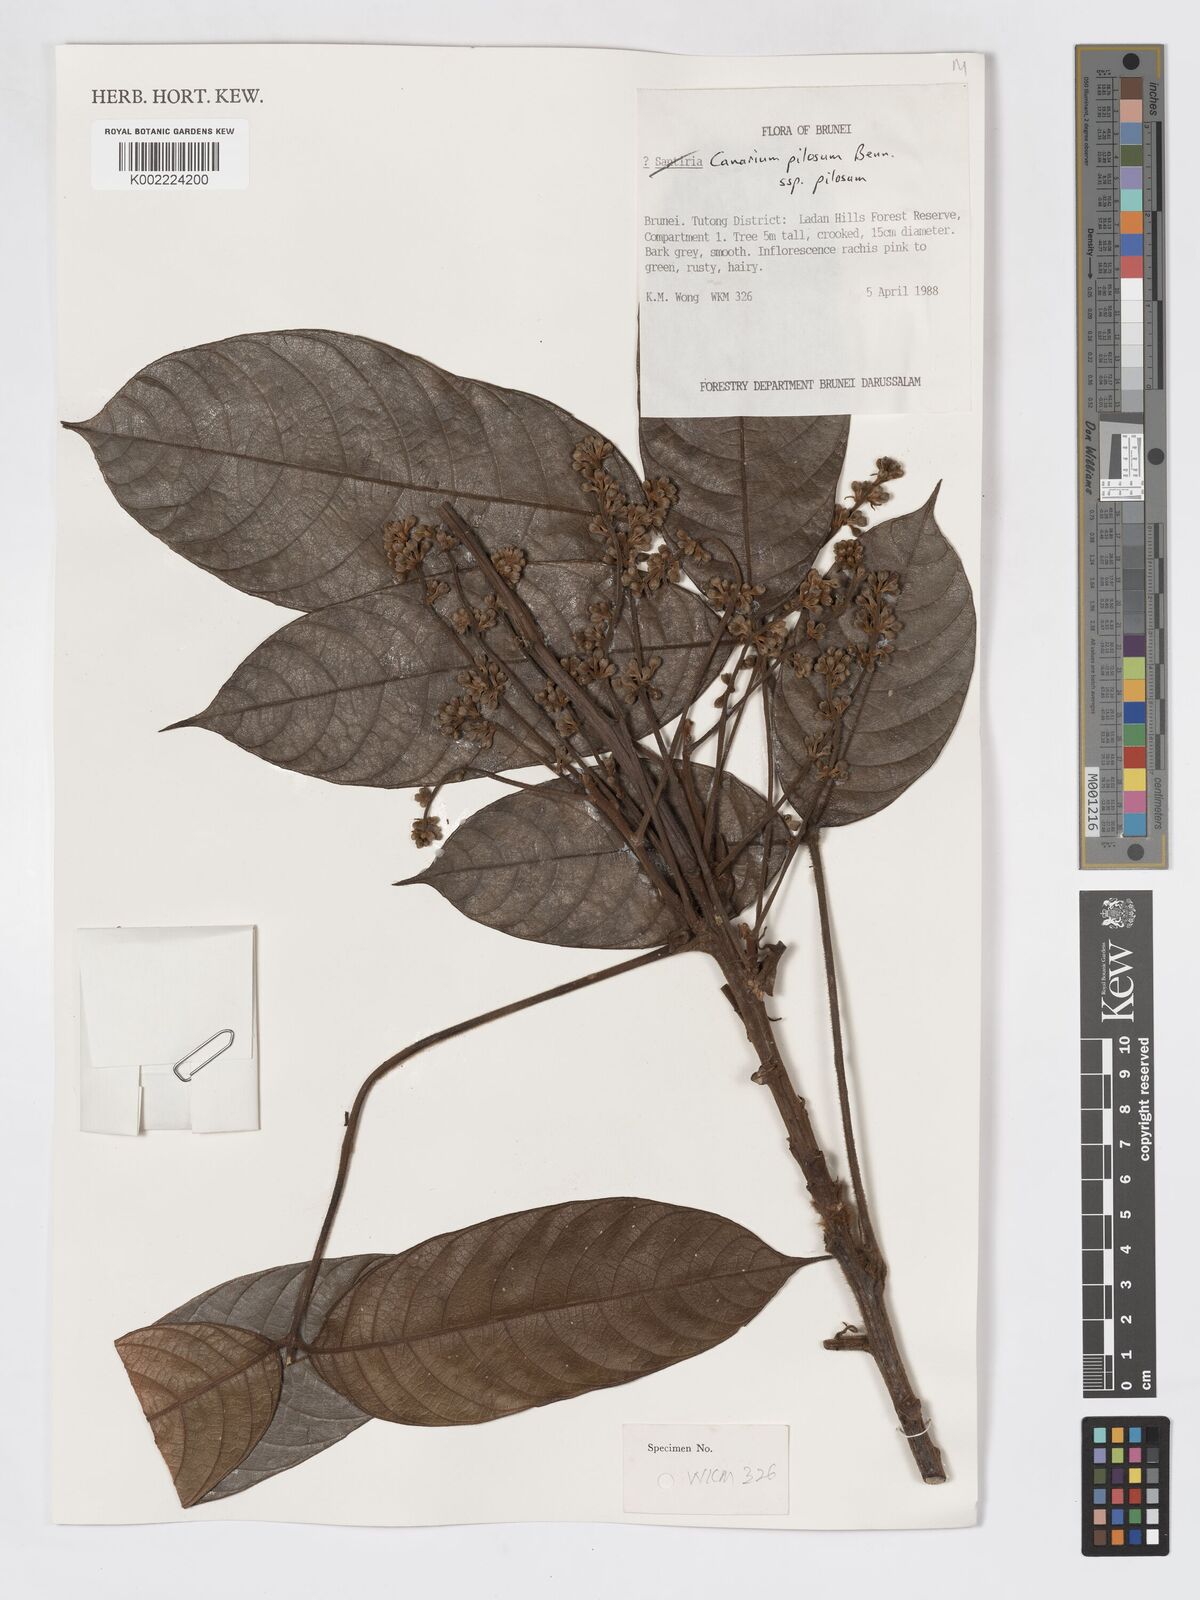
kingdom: Plantae
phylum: Tracheophyta
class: Magnoliopsida
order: Sapindales
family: Burseraceae
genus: Canarium
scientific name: Canarium pilosum
